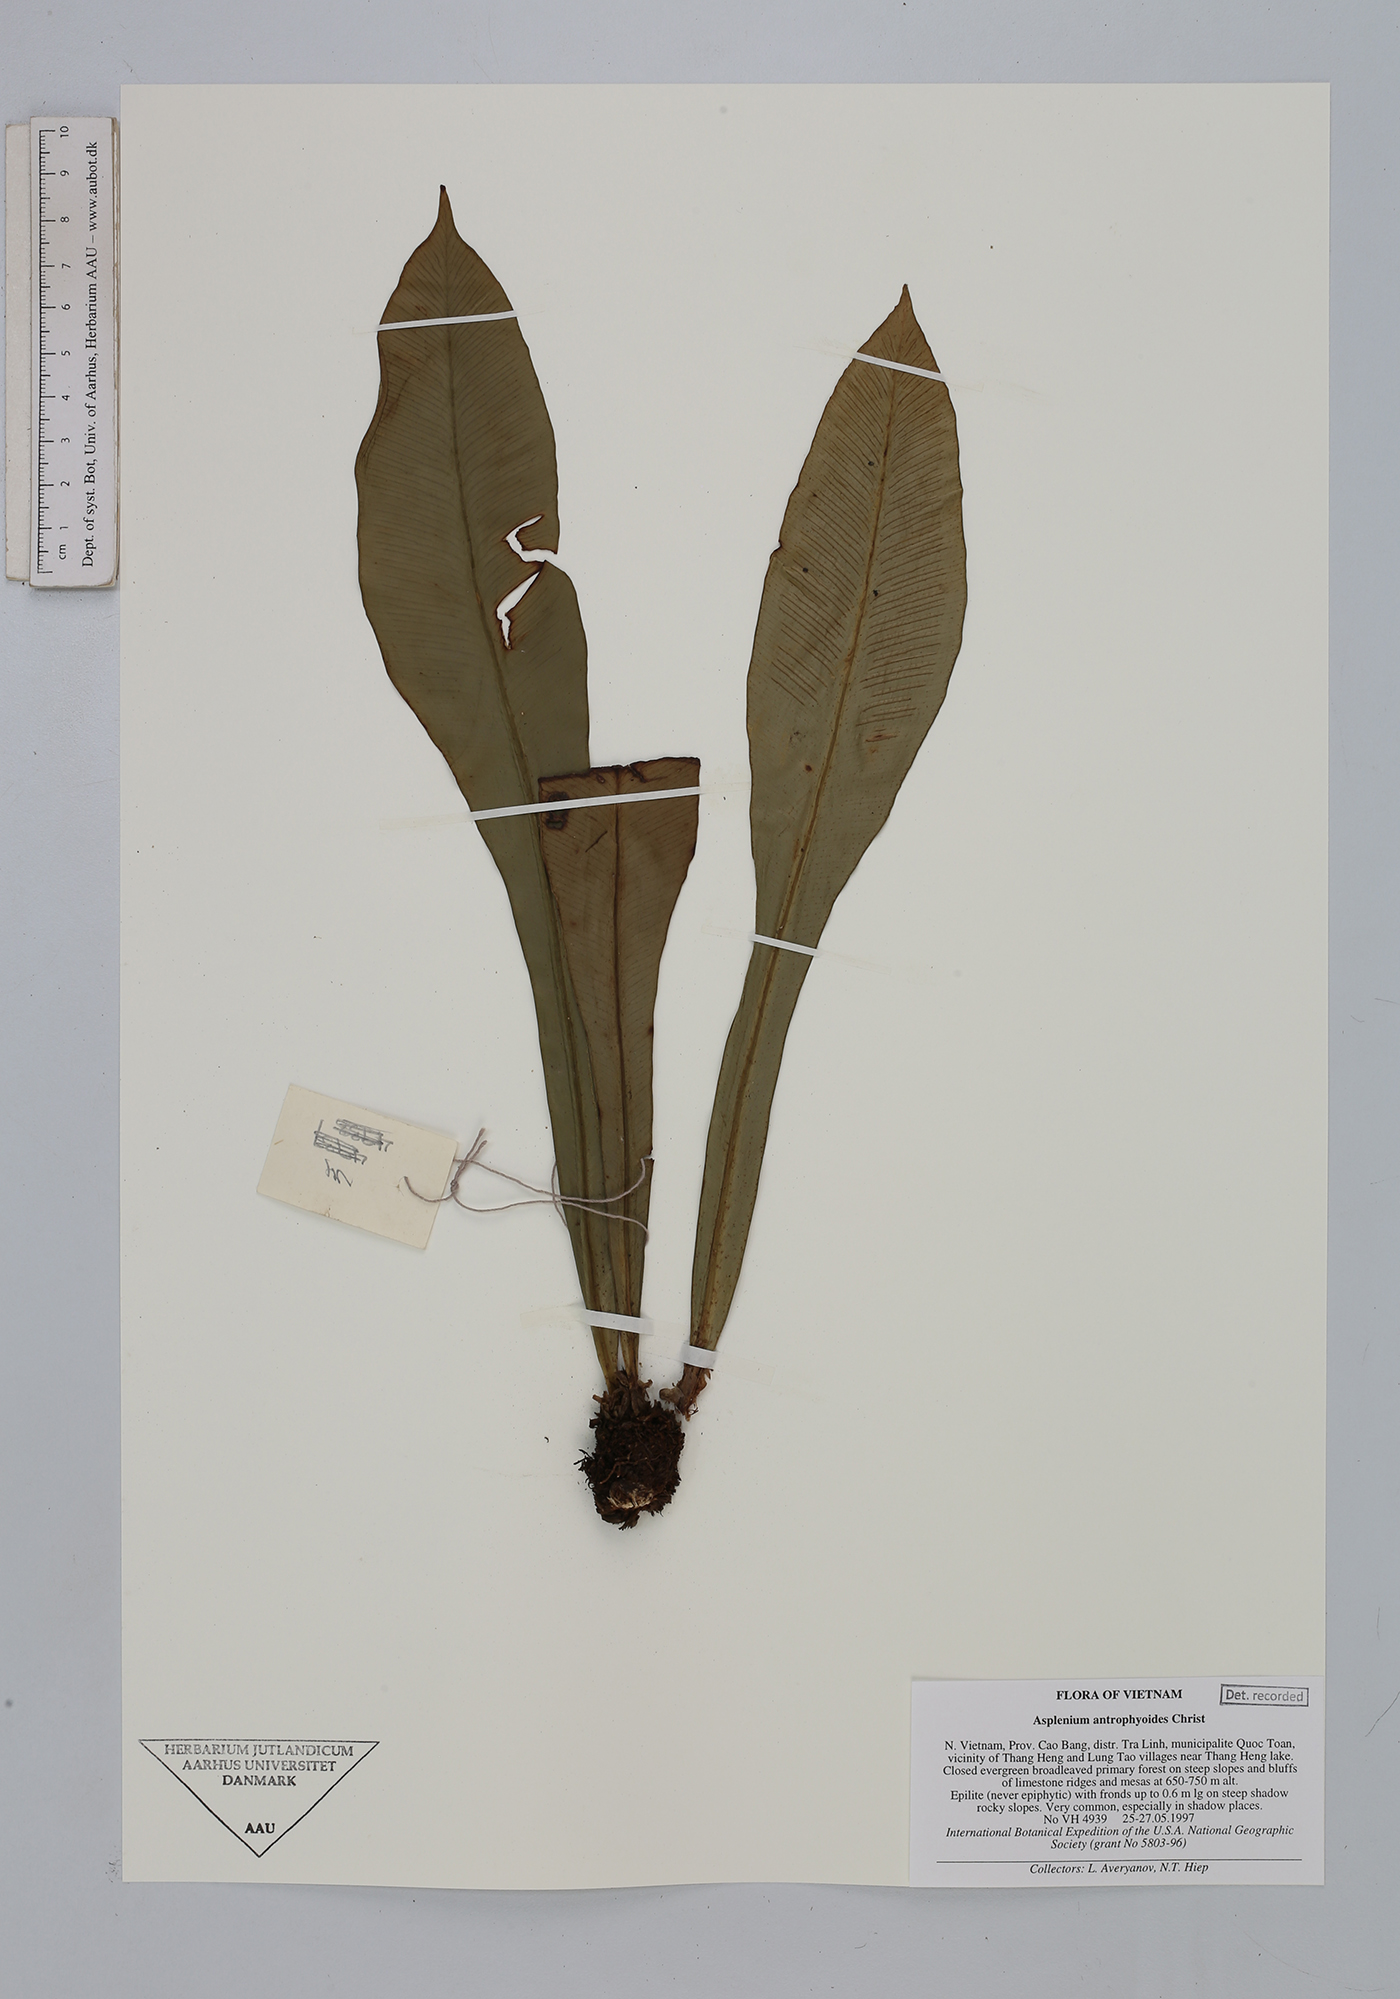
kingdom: Plantae
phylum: Tracheophyta
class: Polypodiopsida
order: Polypodiales
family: Aspleniaceae
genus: Asplenium
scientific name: Asplenium antrophyoides
